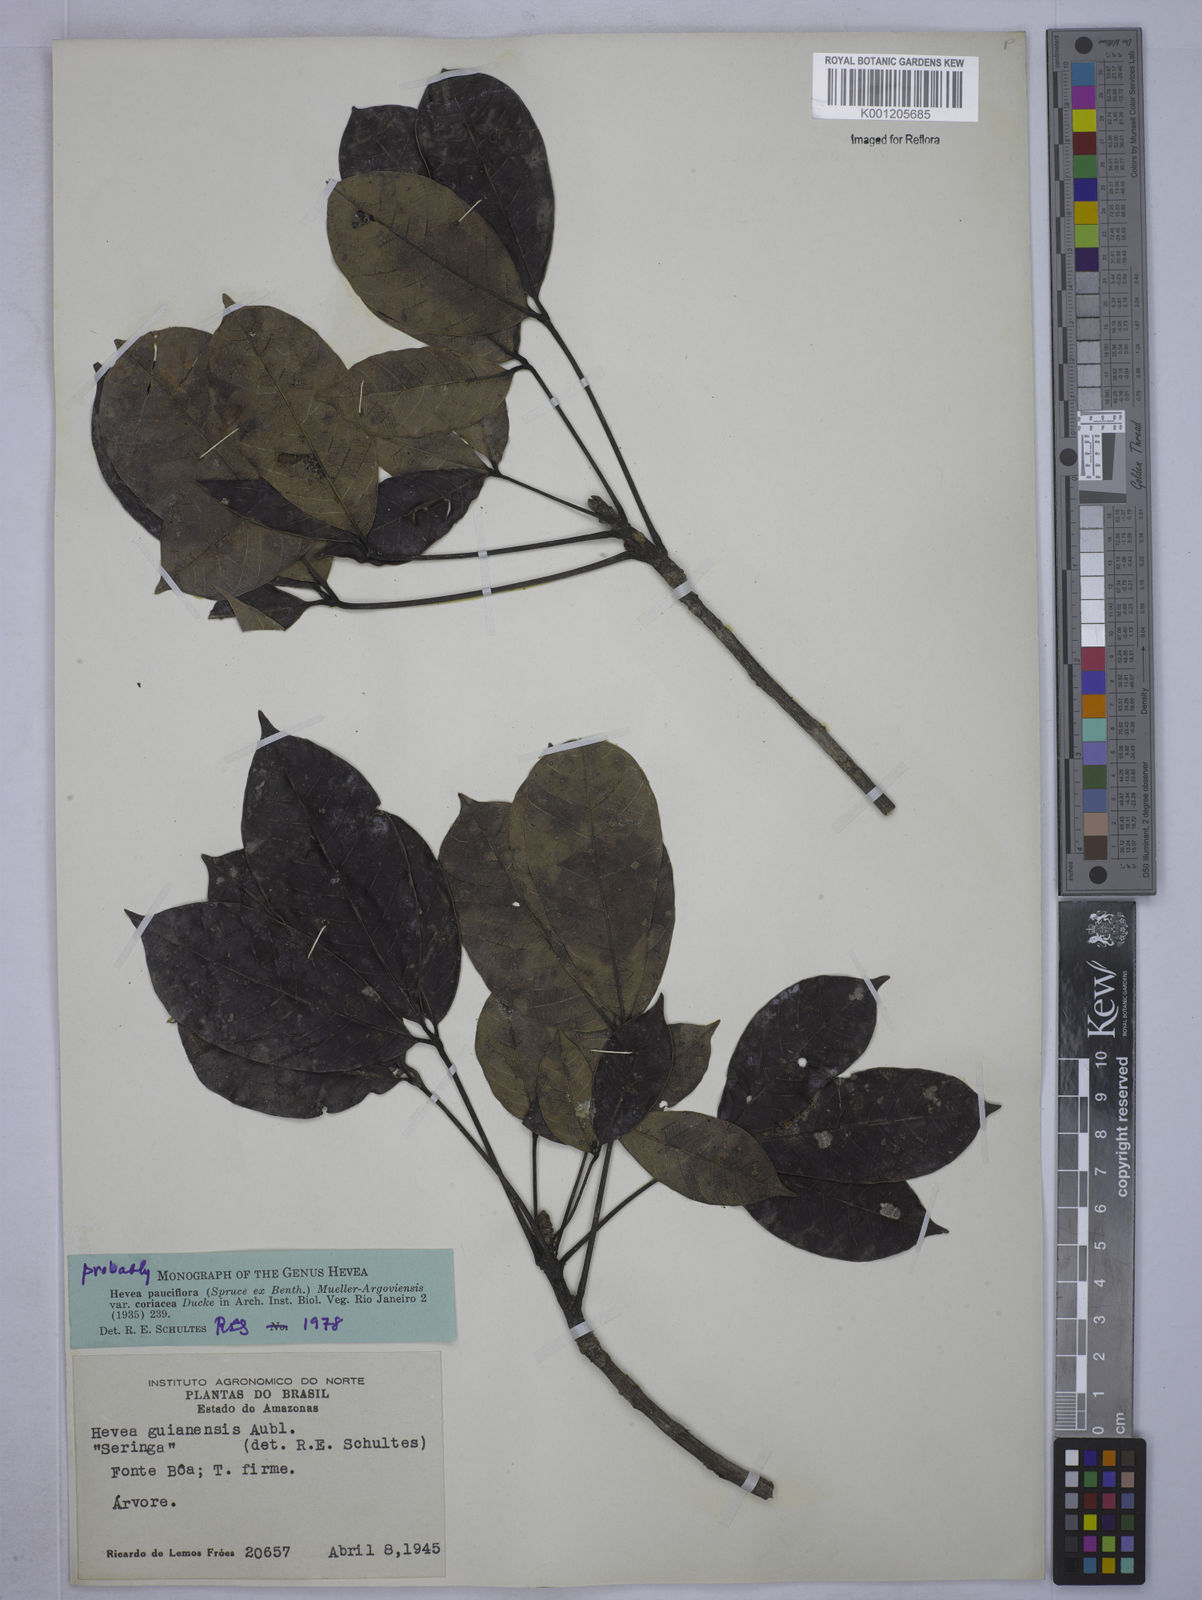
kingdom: Plantae
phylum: Tracheophyta
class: Magnoliopsida
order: Malpighiales
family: Euphorbiaceae
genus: Hevea
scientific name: Hevea pauciflora
